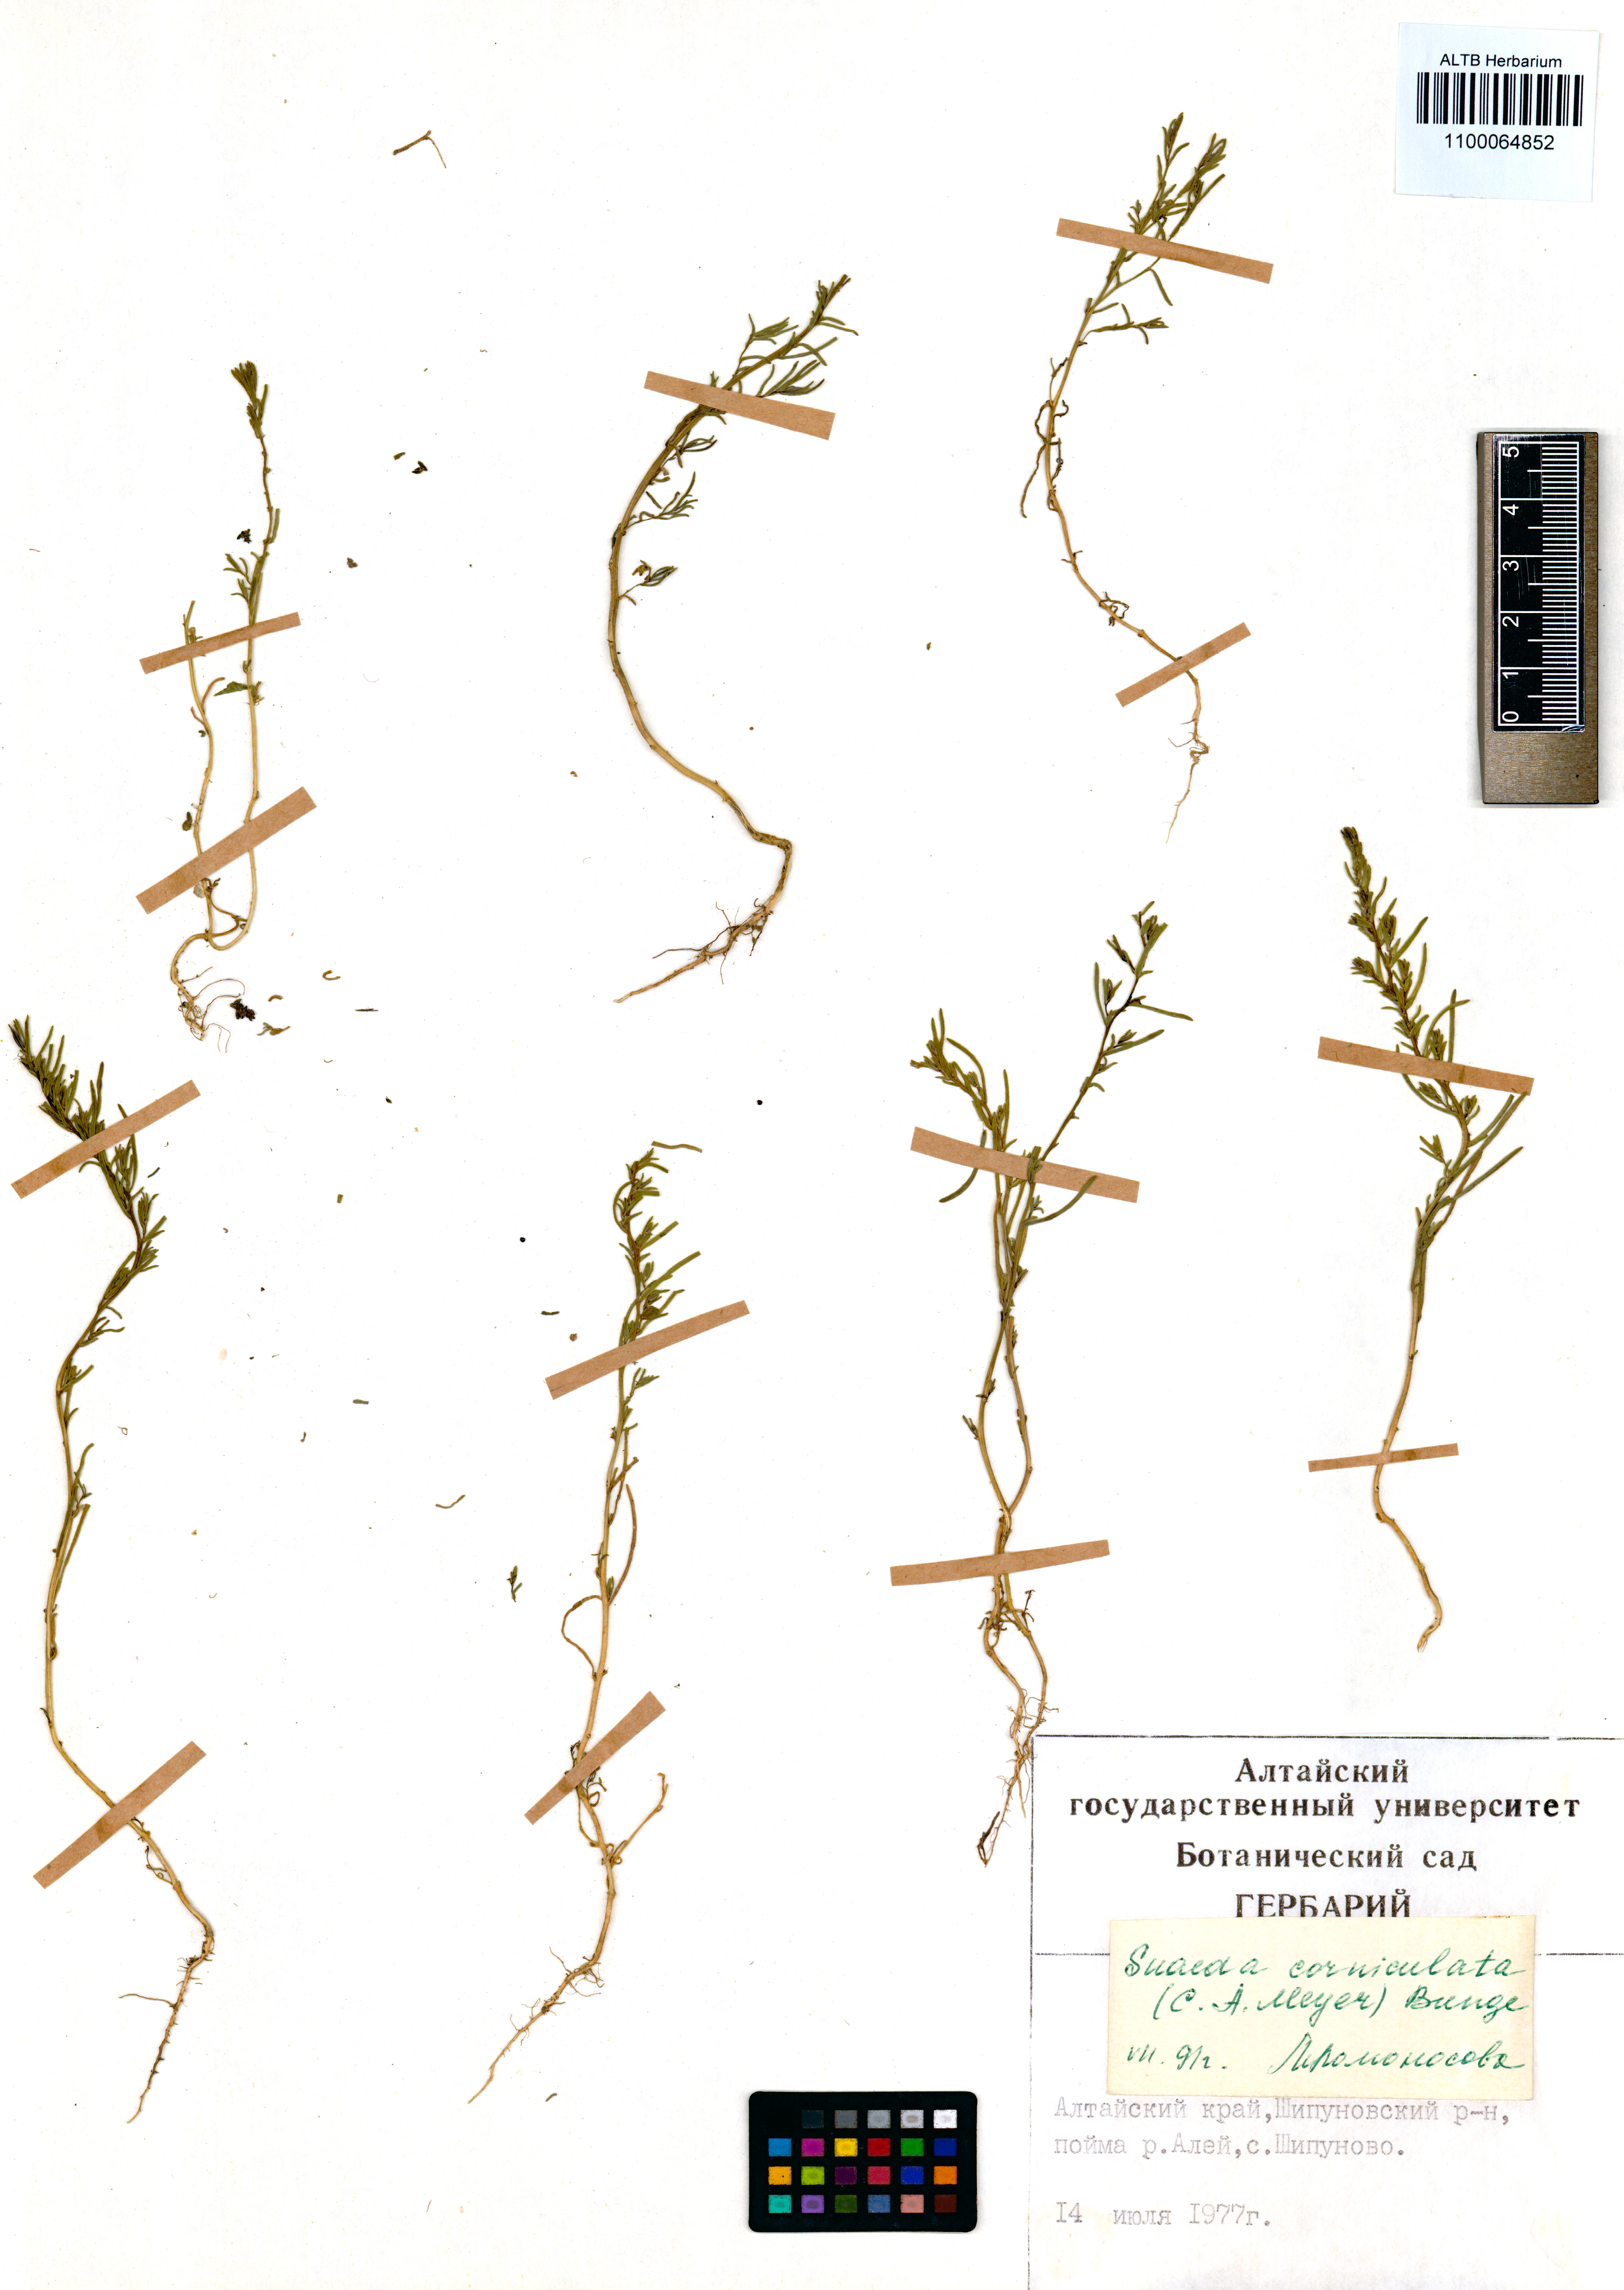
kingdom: Plantae
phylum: Tracheophyta
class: Magnoliopsida
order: Caryophyllales
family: Amaranthaceae
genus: Suaeda
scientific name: Suaeda corniculata
